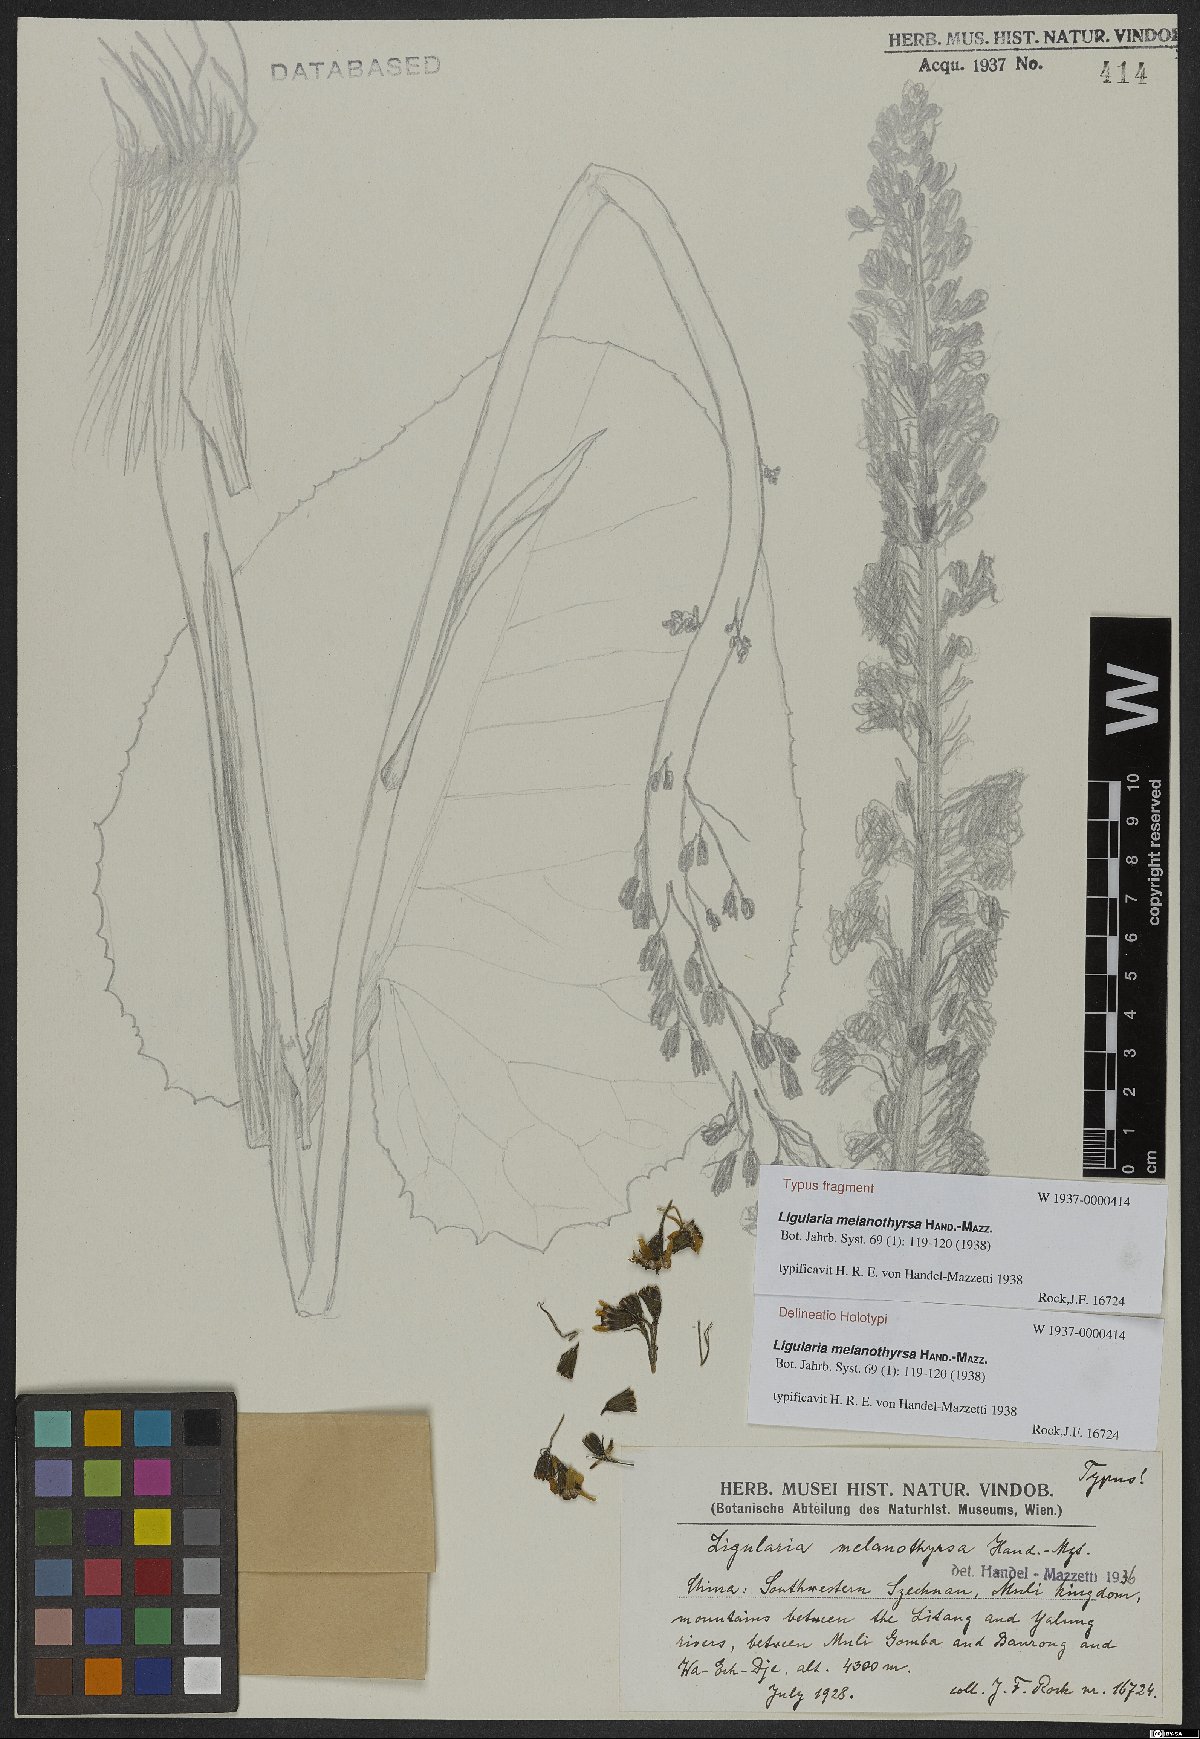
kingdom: Plantae
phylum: Tracheophyta
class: Magnoliopsida
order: Asterales
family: Asteraceae
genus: Ligularia
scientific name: Ligularia melanothyrsa
